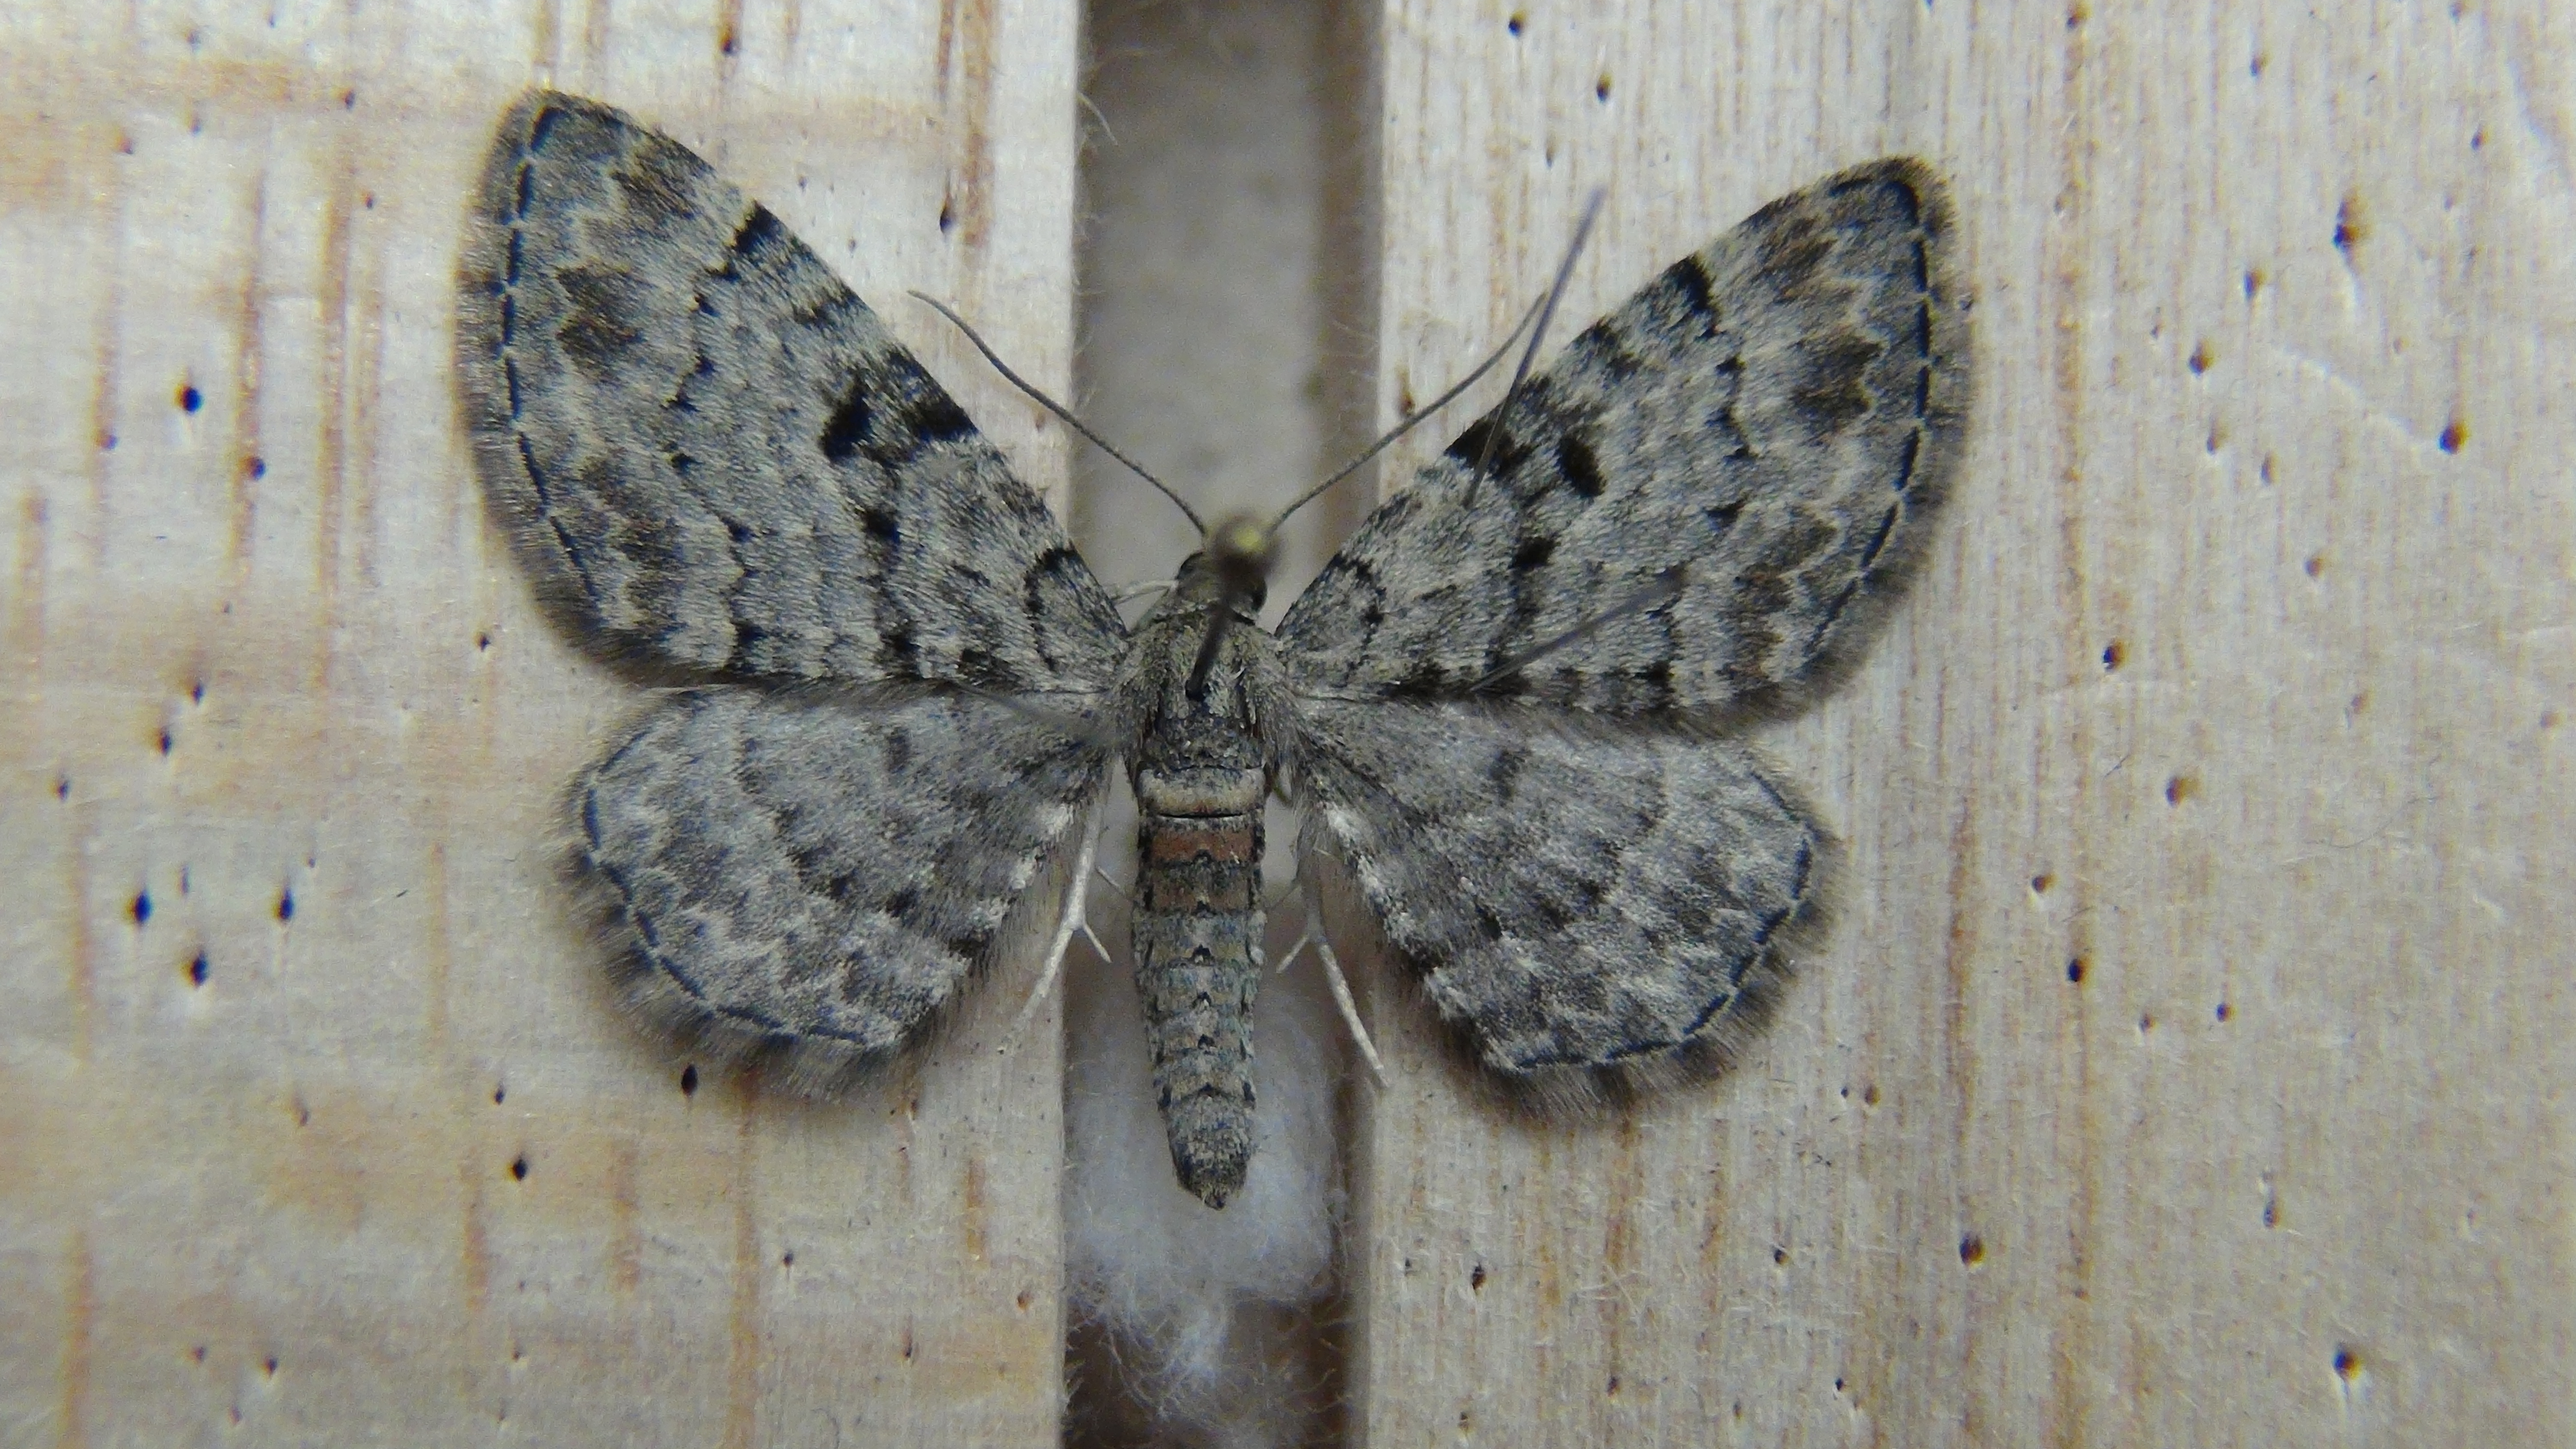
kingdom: Animalia
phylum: Arthropoda
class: Insecta
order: Lepidoptera
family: Geometridae
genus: Eupithecia
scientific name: Eupithecia abietaria
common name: Cloaked pug
